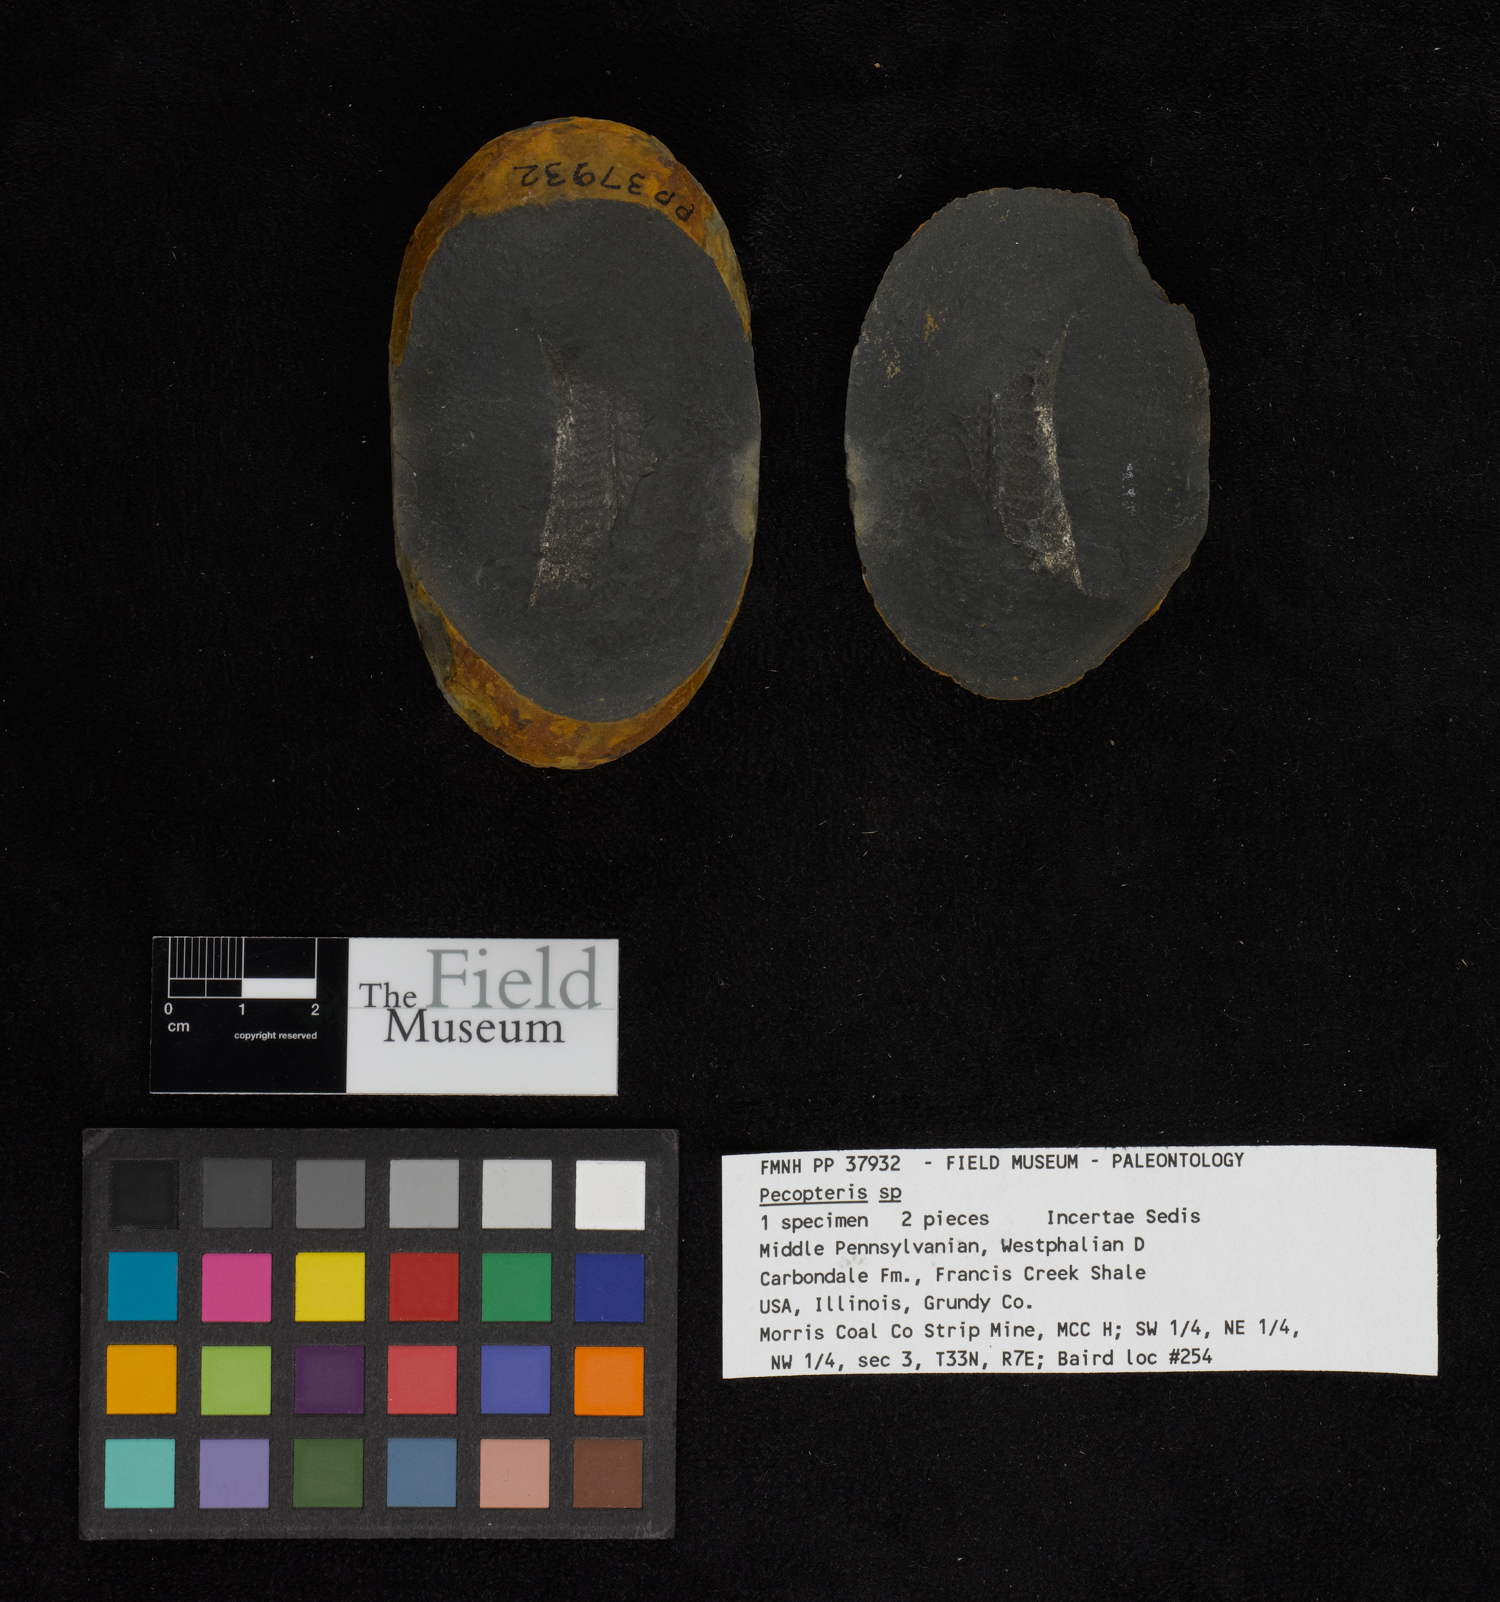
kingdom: Plantae
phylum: Tracheophyta
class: Polypodiopsida
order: Marattiales
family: Asterothecaceae
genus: Pecopteris
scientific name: Pecopteris
